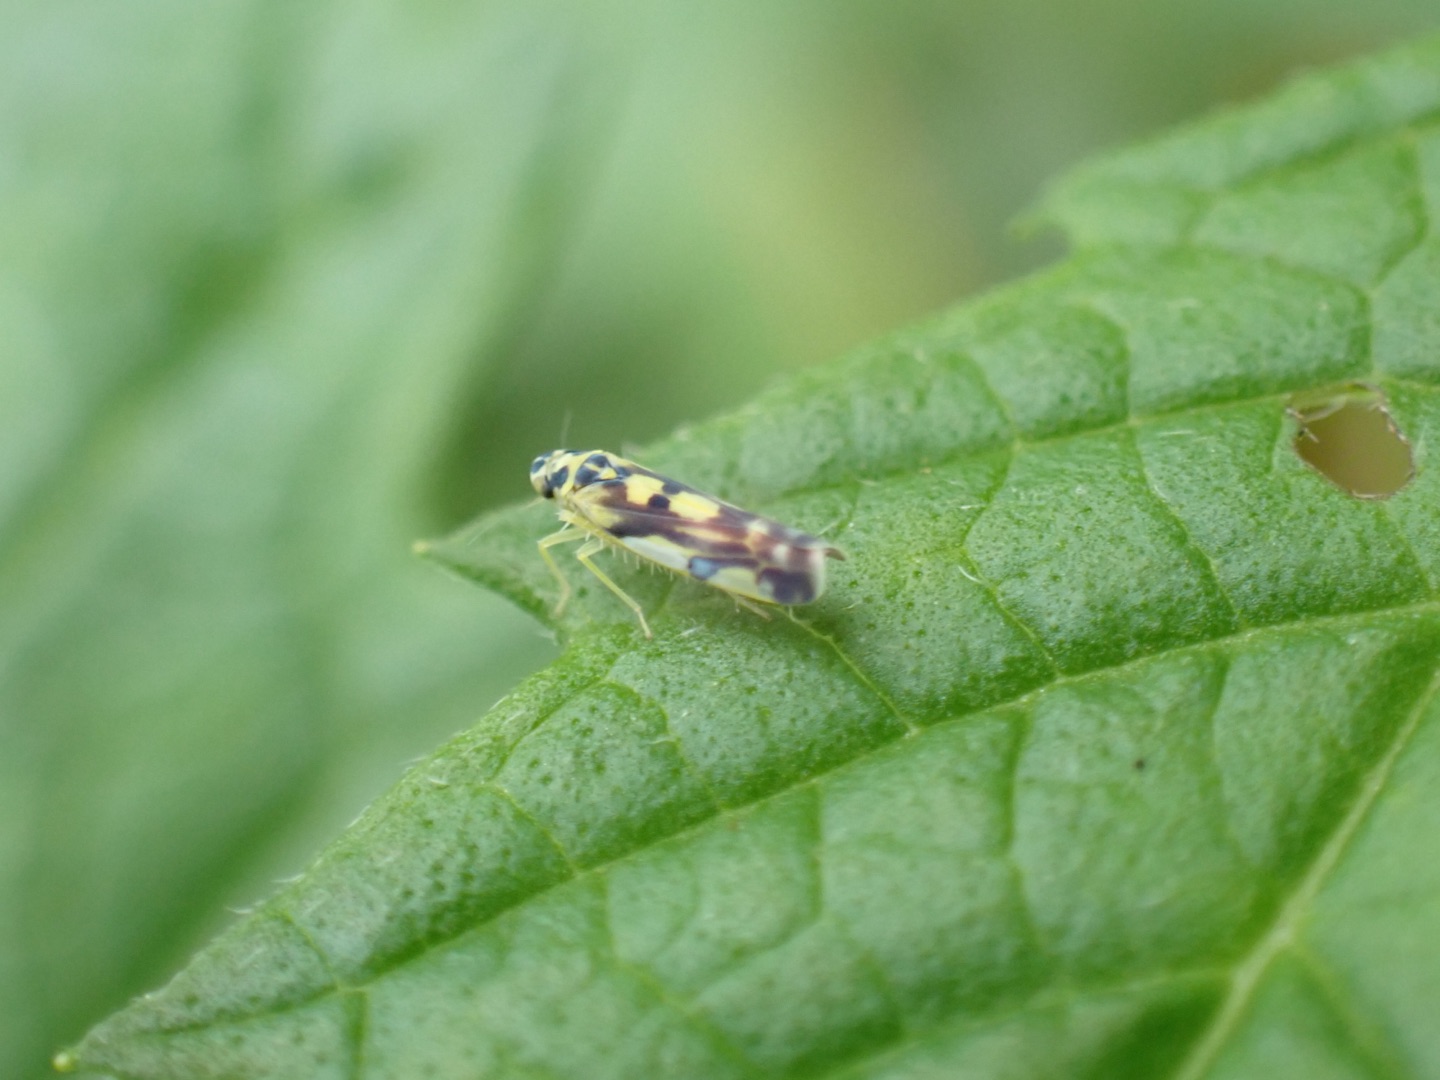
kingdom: Animalia
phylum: Arthropoda
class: Insecta
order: Hemiptera
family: Cicadellidae
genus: Eupteryx
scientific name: Eupteryx aurata
